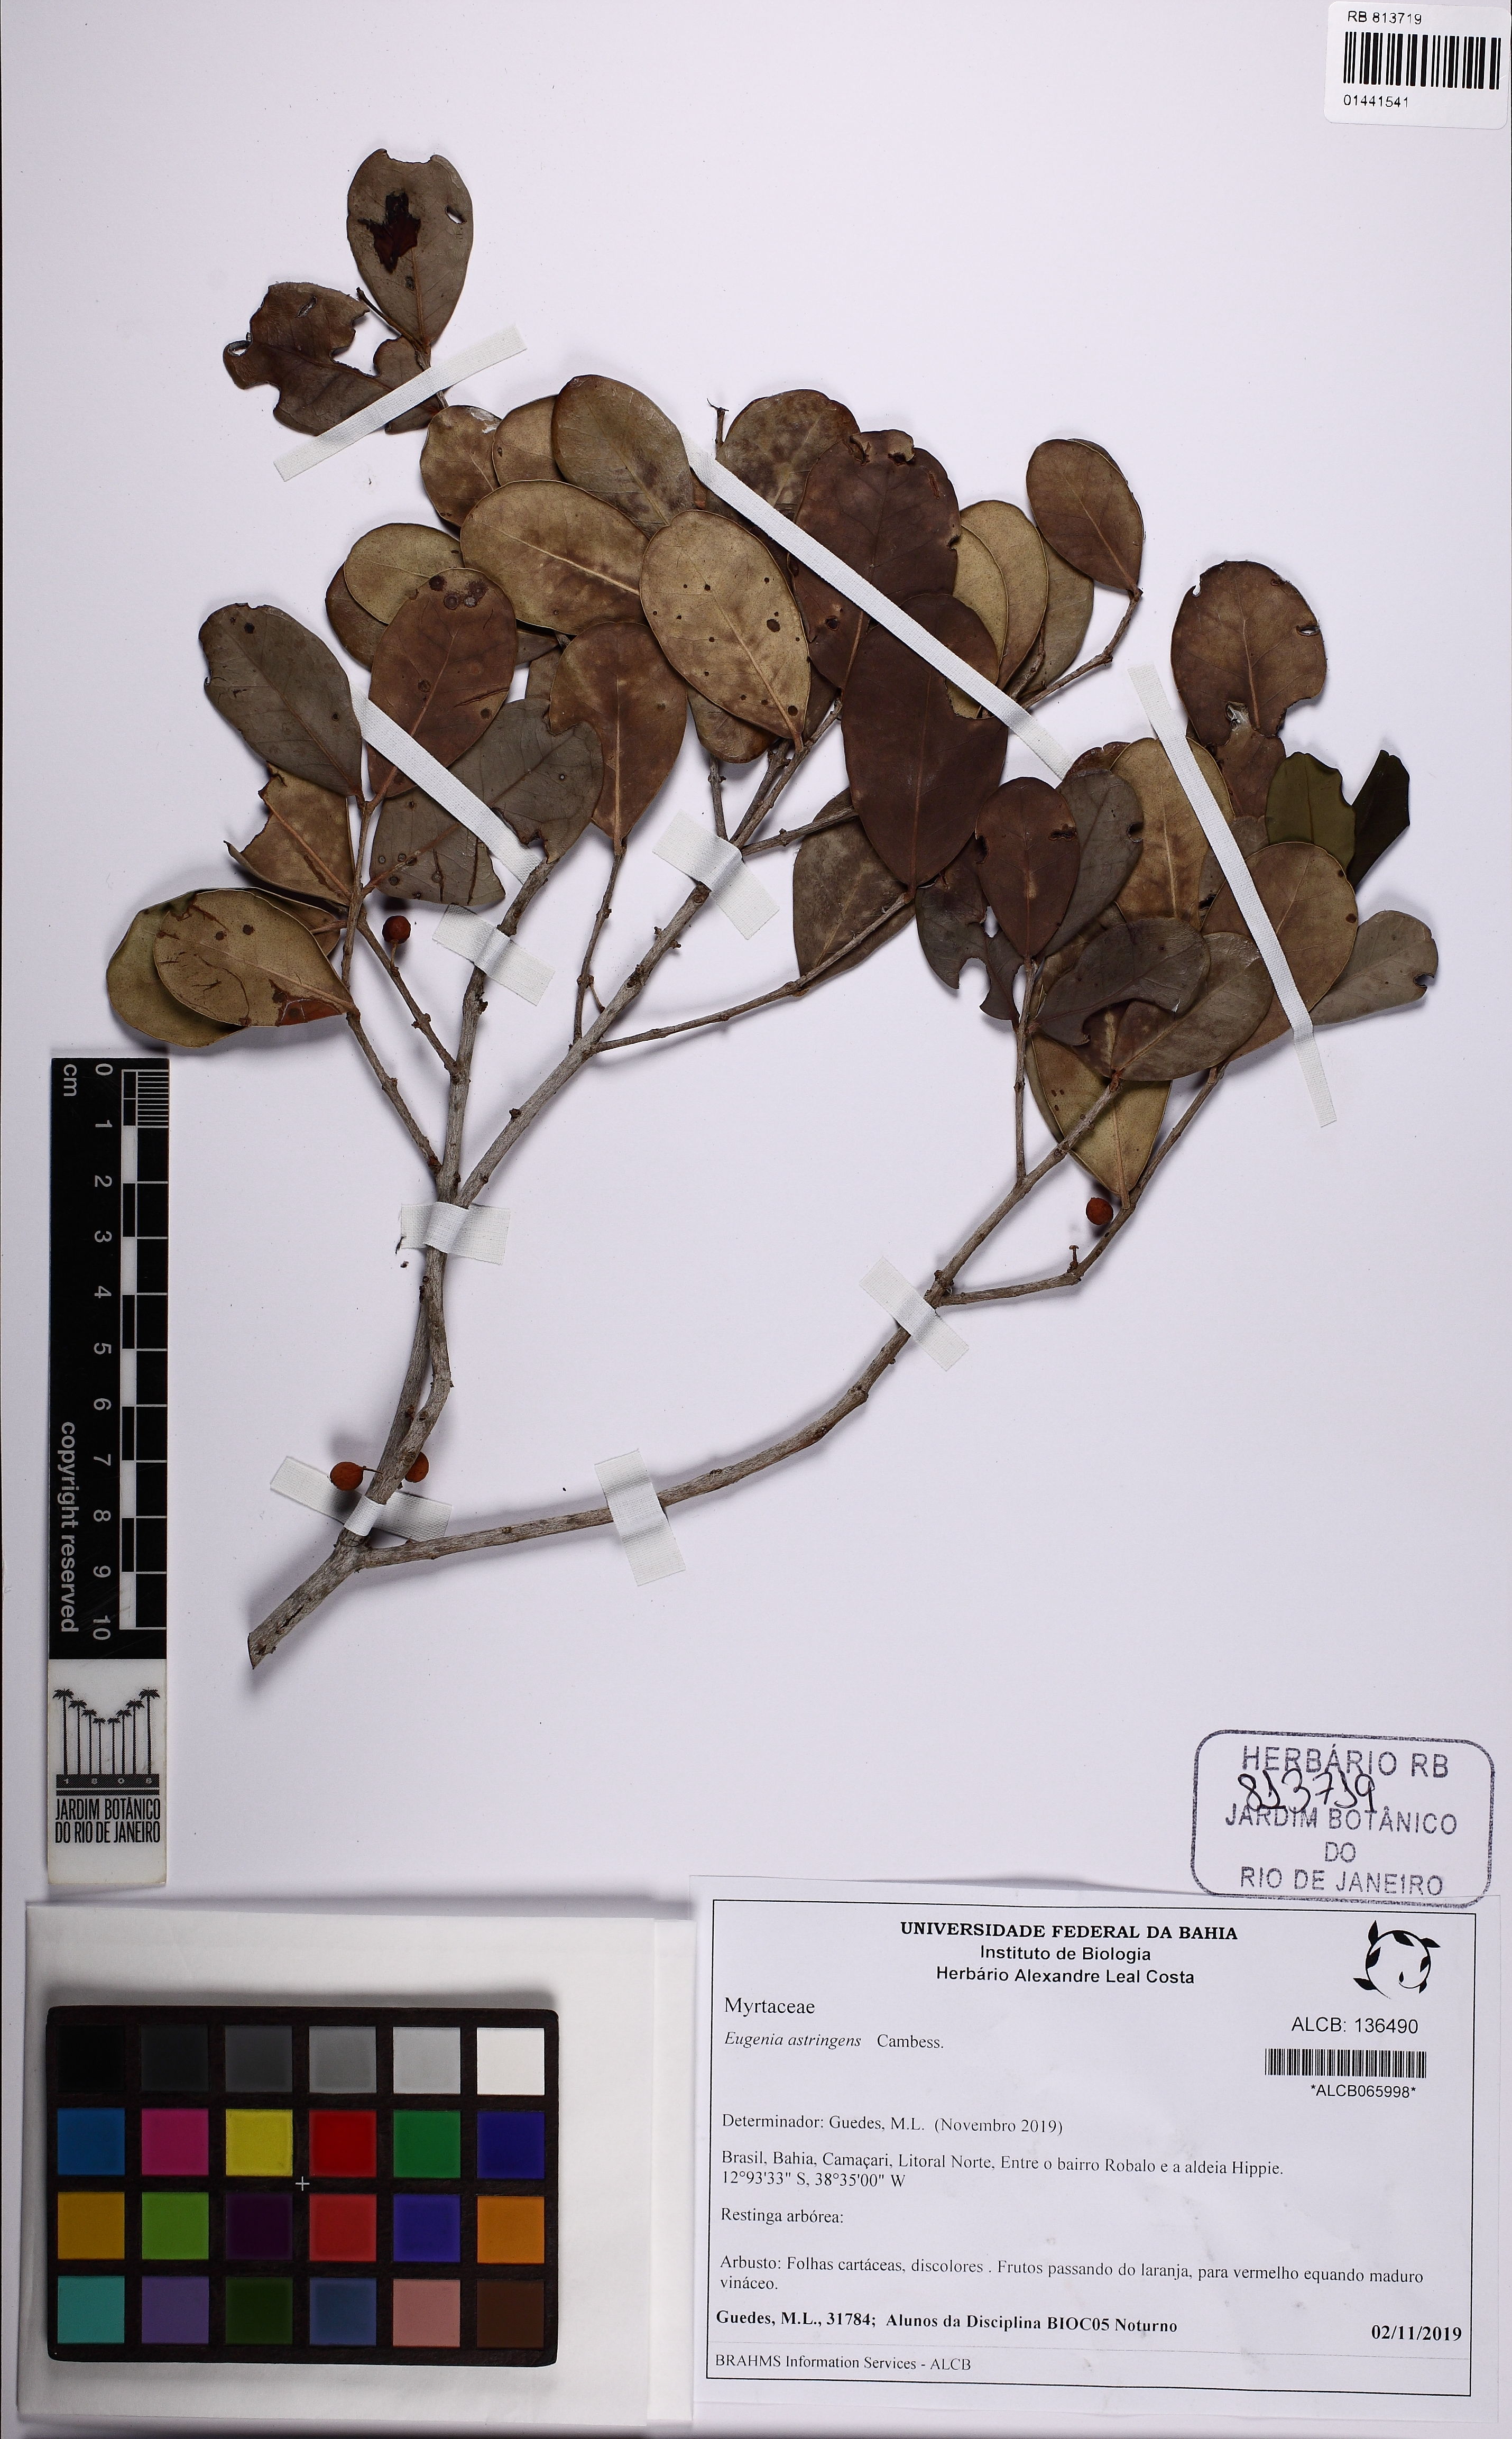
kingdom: Plantae
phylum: Tracheophyta
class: Magnoliopsida
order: Myrtales
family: Myrtaceae
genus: Eugenia
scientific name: Eugenia astringens
